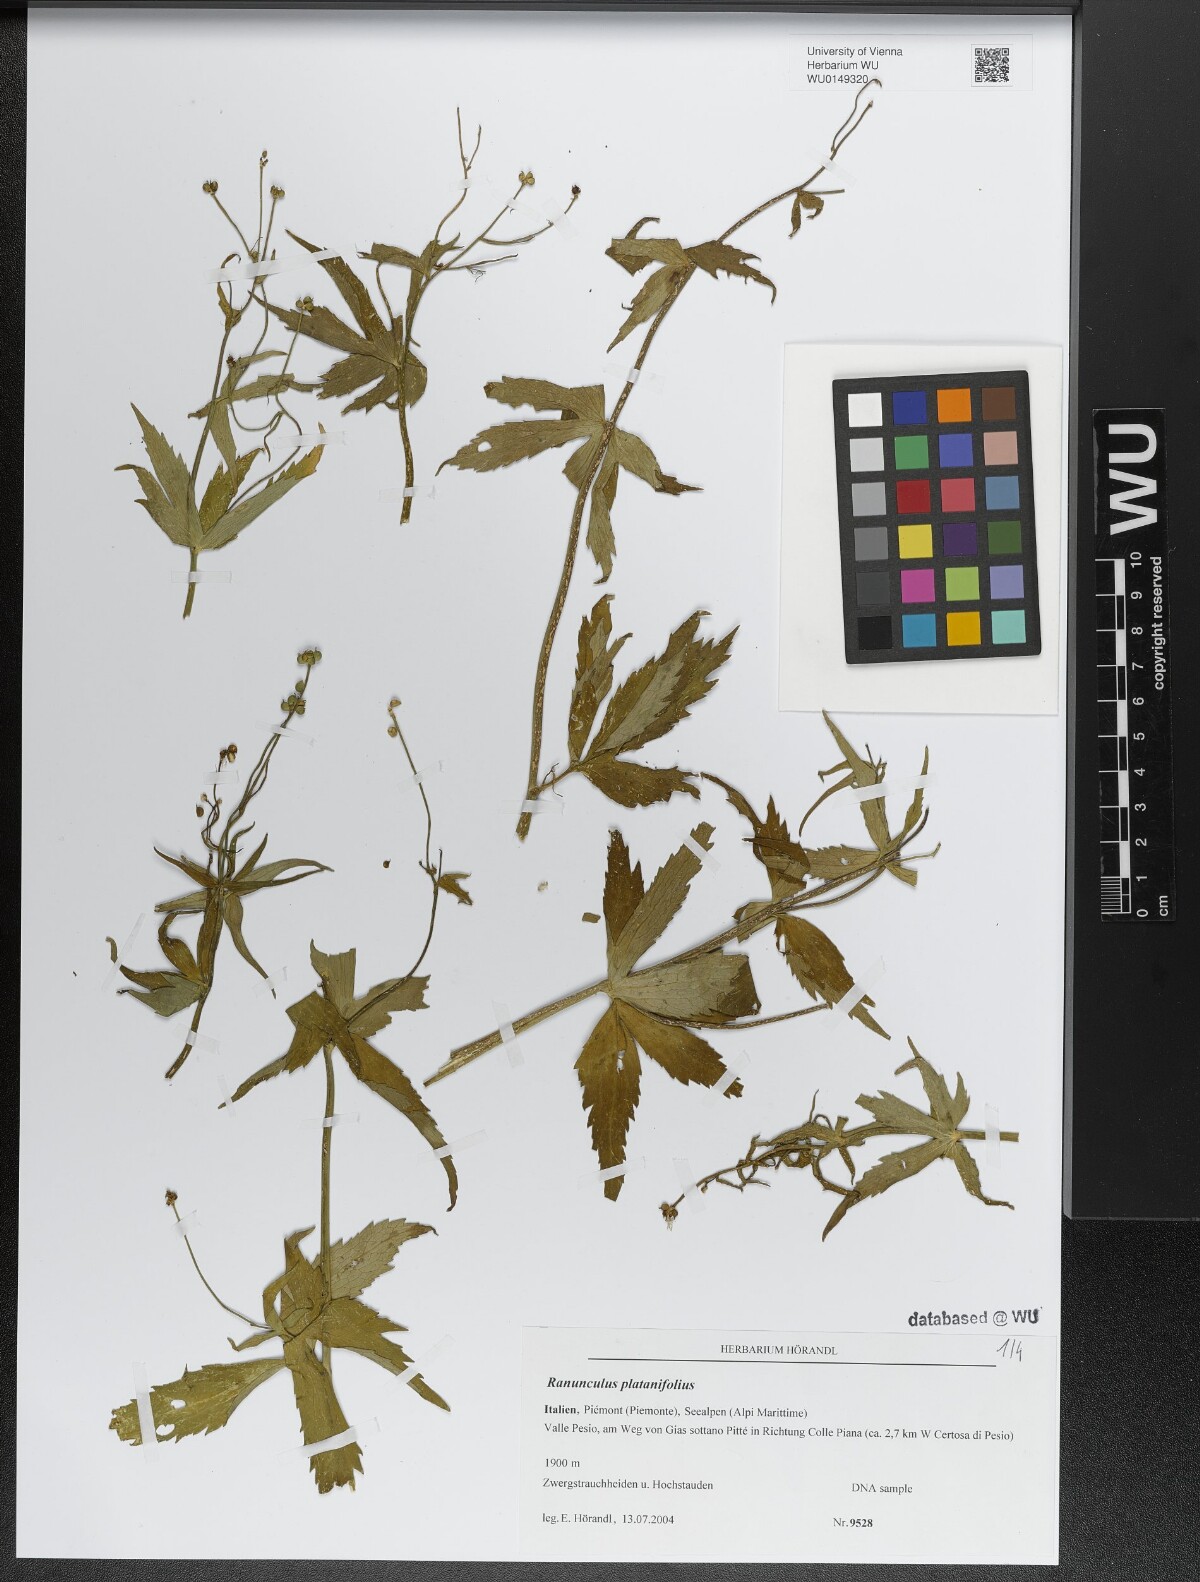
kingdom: Plantae
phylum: Tracheophyta
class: Magnoliopsida
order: Ranunculales
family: Ranunculaceae
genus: Ranunculus
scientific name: Ranunculus platanifolius
